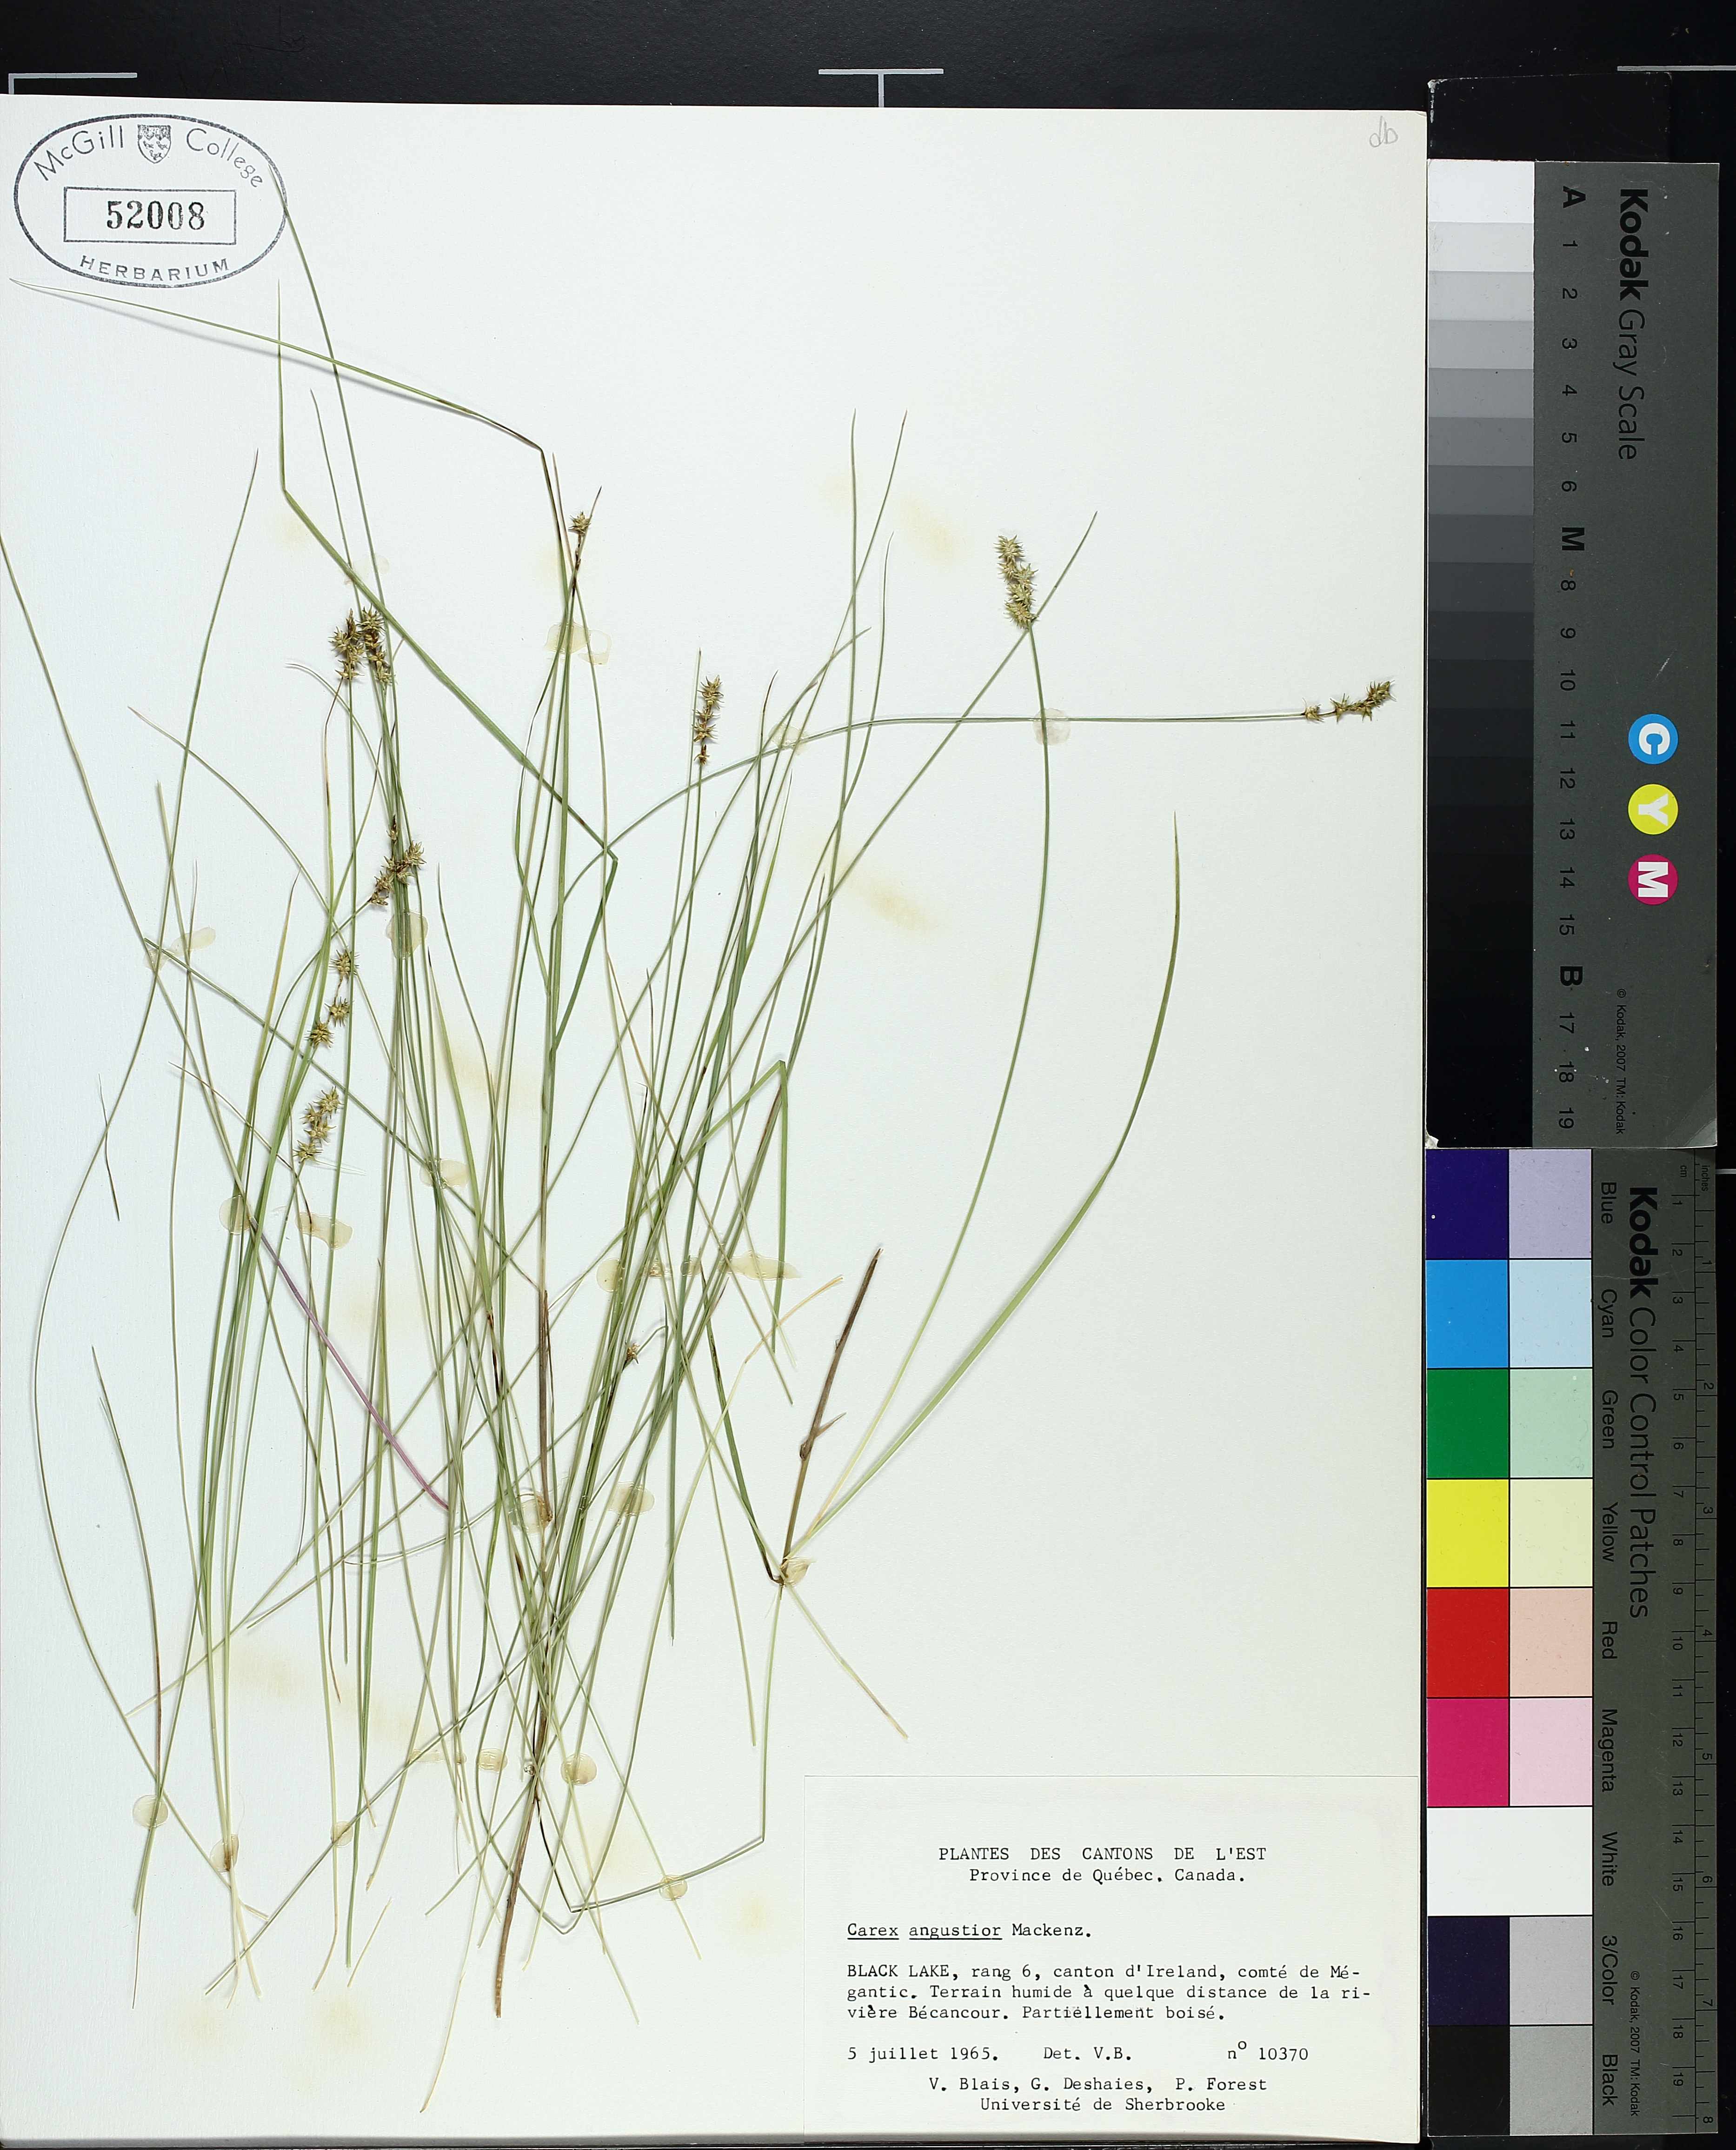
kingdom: Plantae
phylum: Tracheophyta
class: Liliopsida
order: Poales
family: Cyperaceae
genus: Carex
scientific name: Carex echinata
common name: Star sedge
